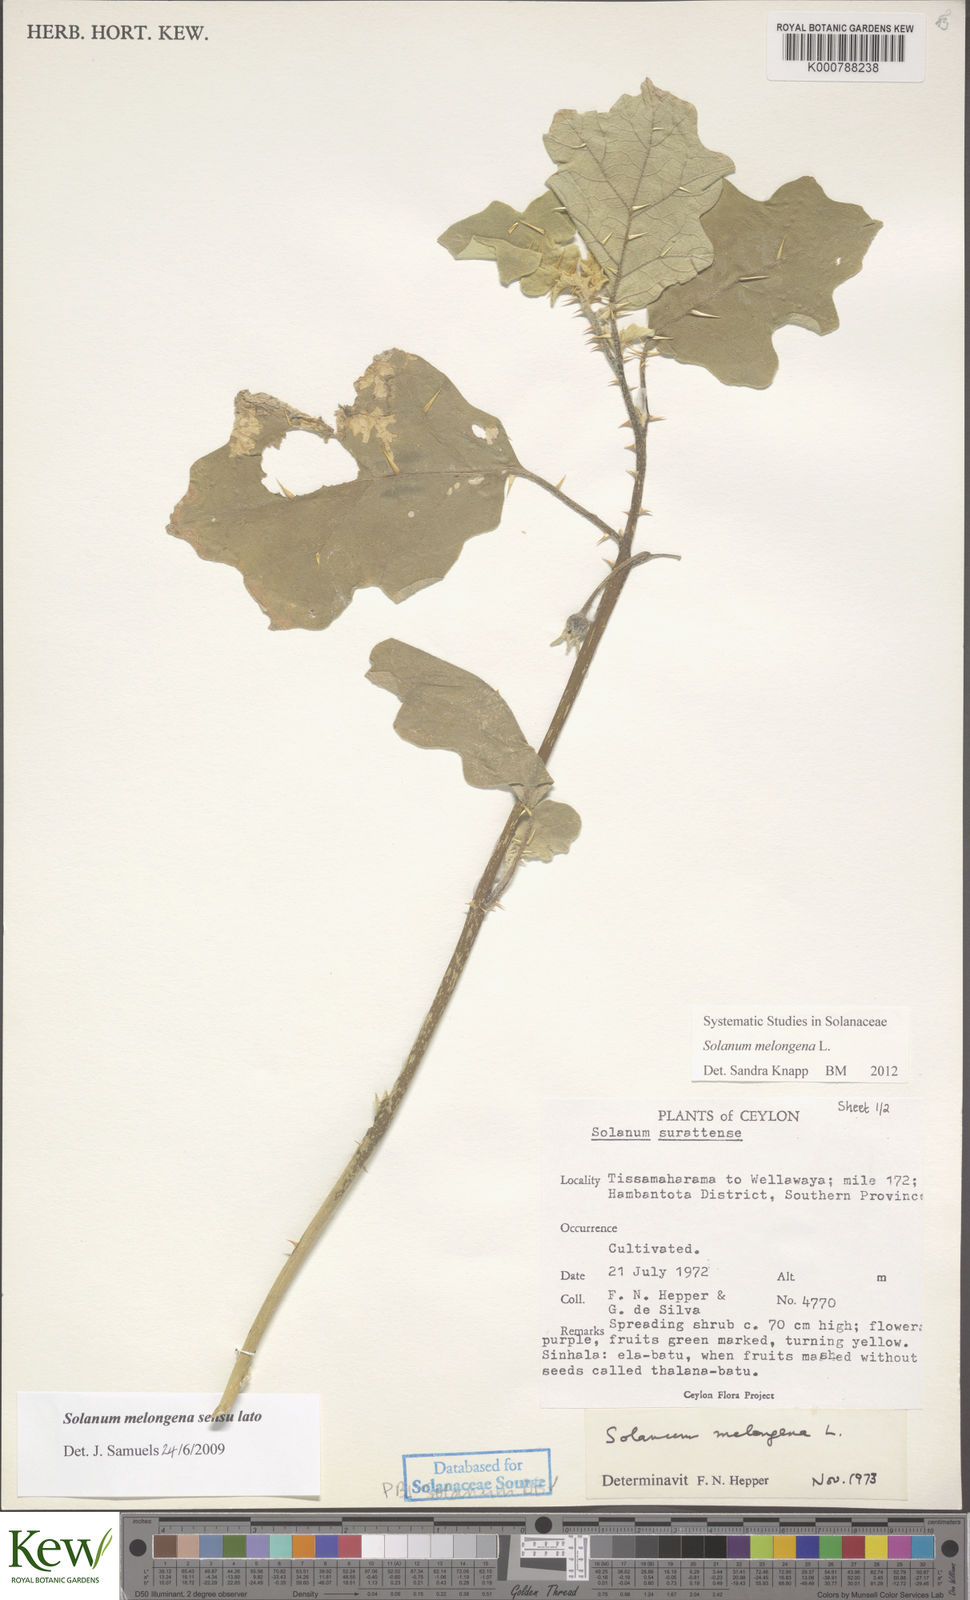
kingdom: Plantae
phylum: Tracheophyta
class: Magnoliopsida
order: Solanales
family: Solanaceae
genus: Solanum
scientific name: Solanum melongena
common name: Eggplant
